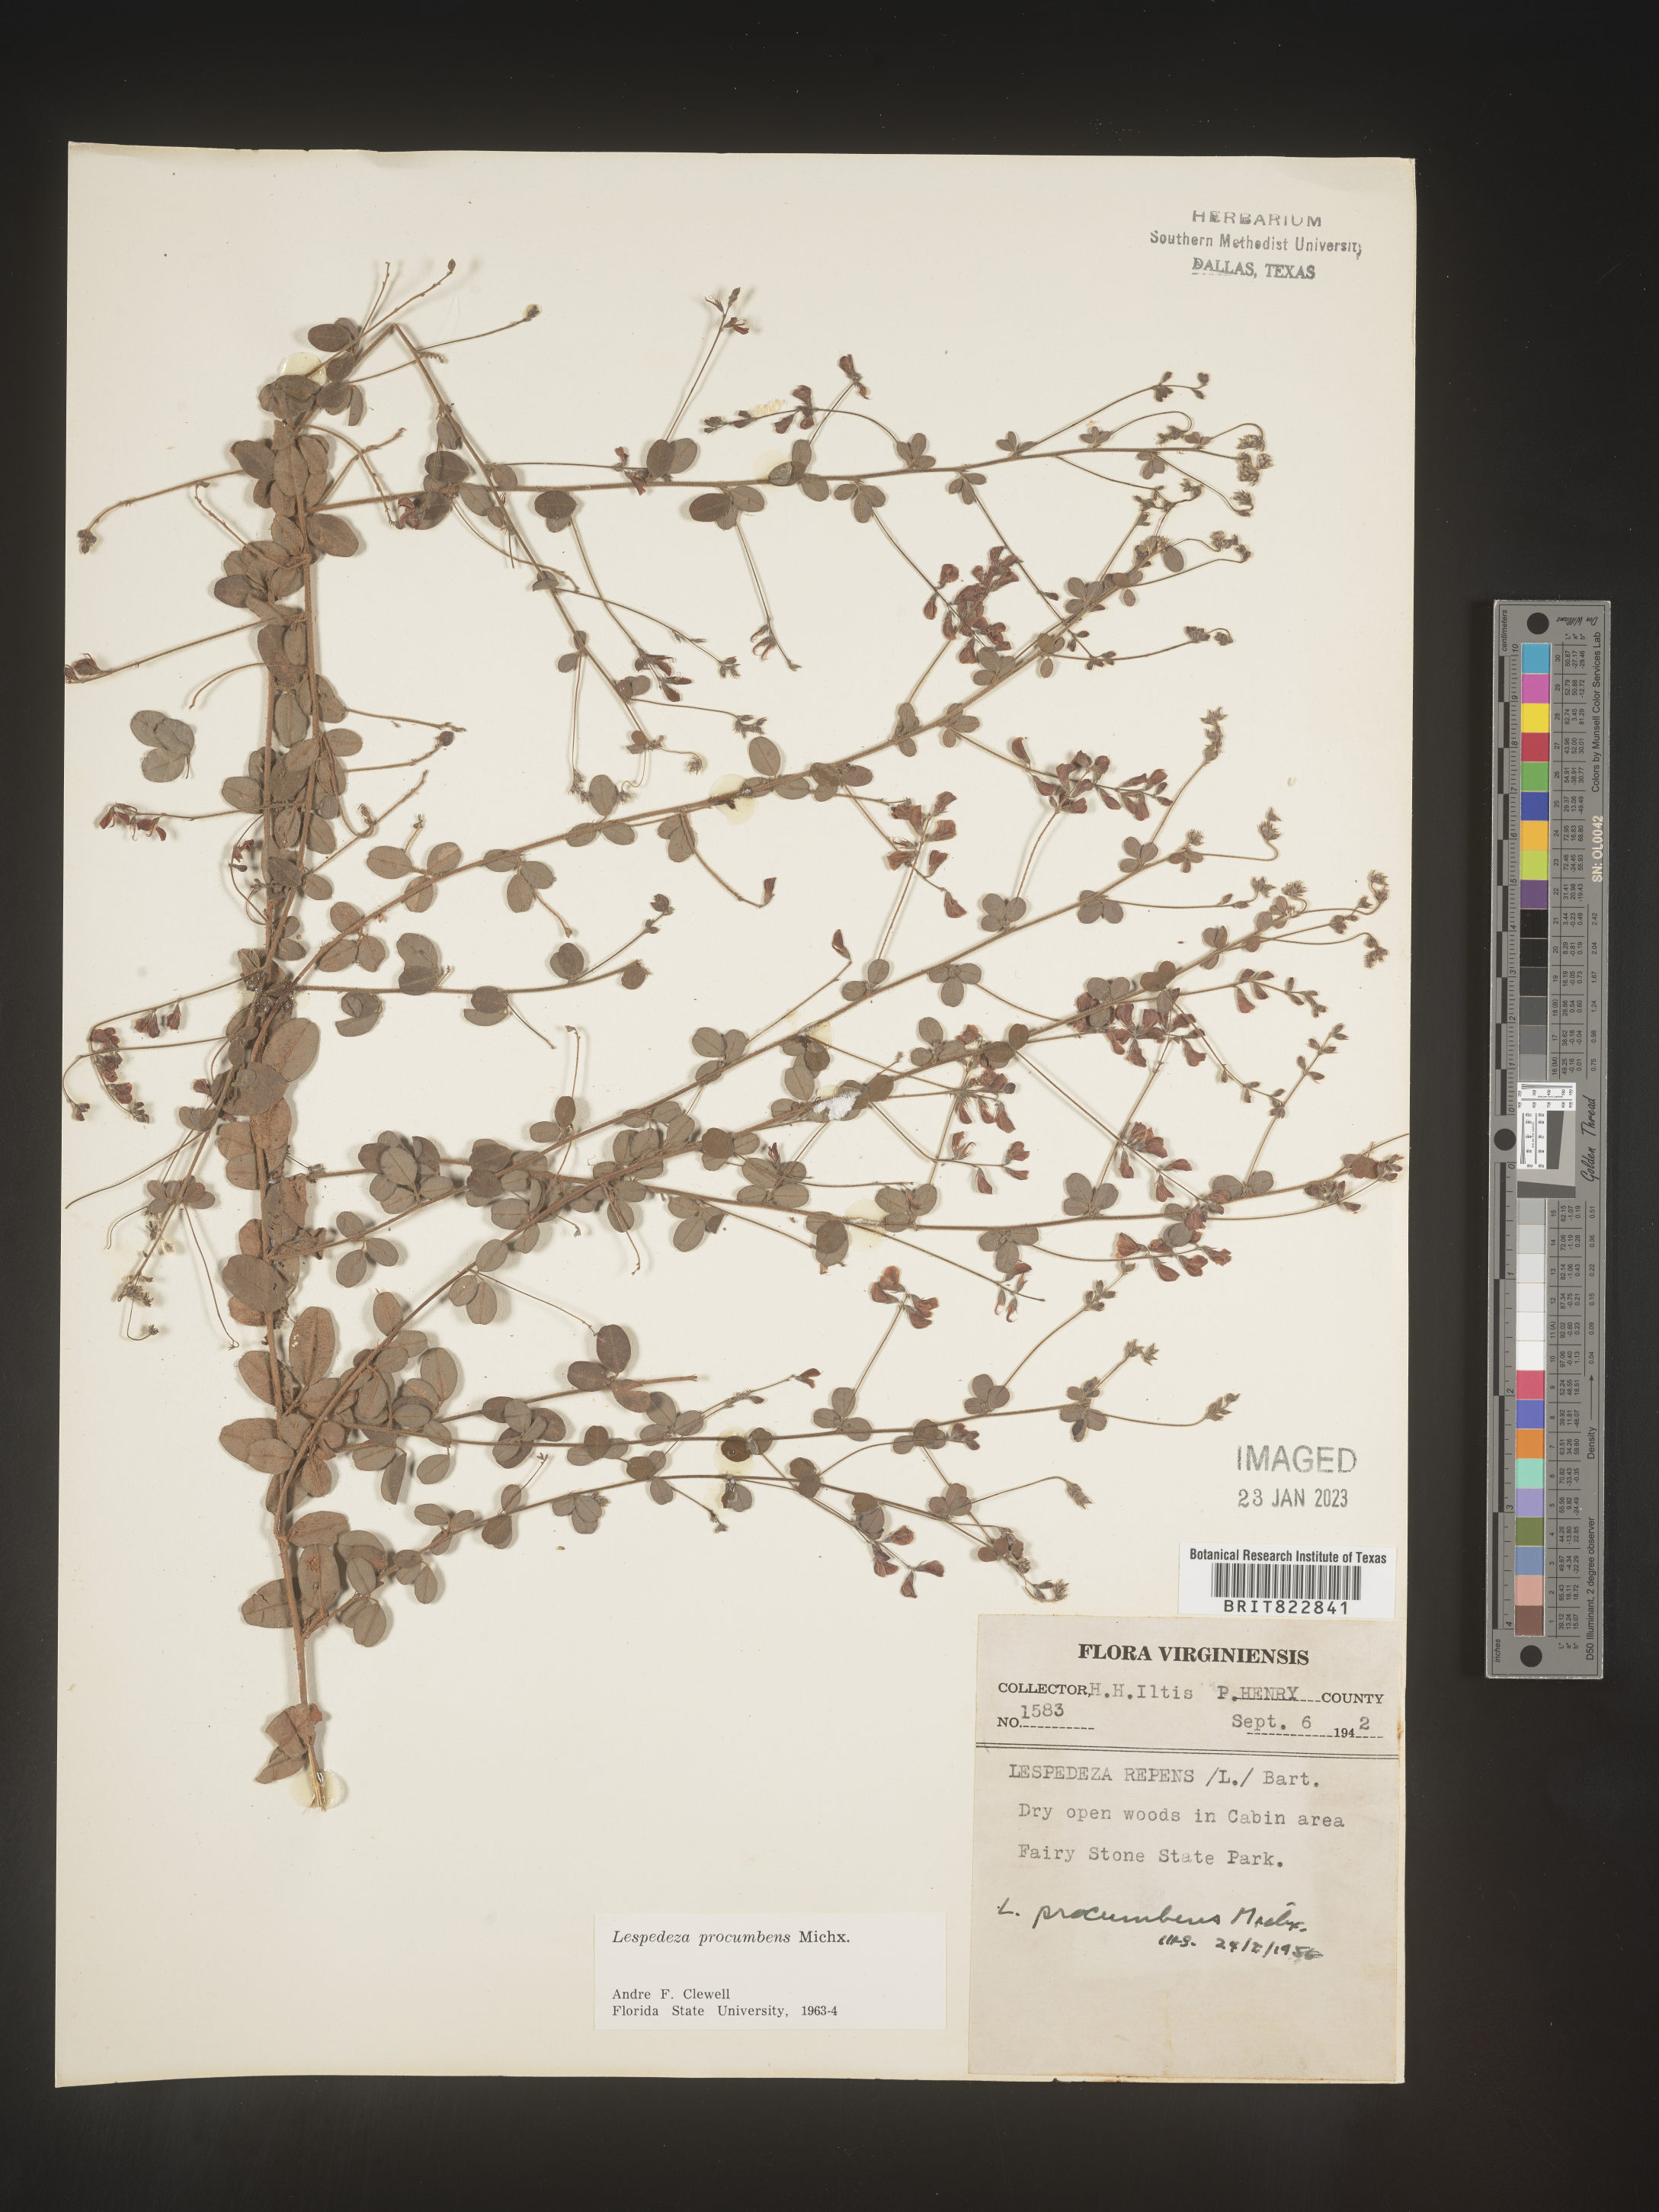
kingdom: Plantae
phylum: Tracheophyta
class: Magnoliopsida
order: Fabales
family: Fabaceae
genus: Lespedeza
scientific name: Lespedeza procumbens
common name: Downy trailing bush-clover
